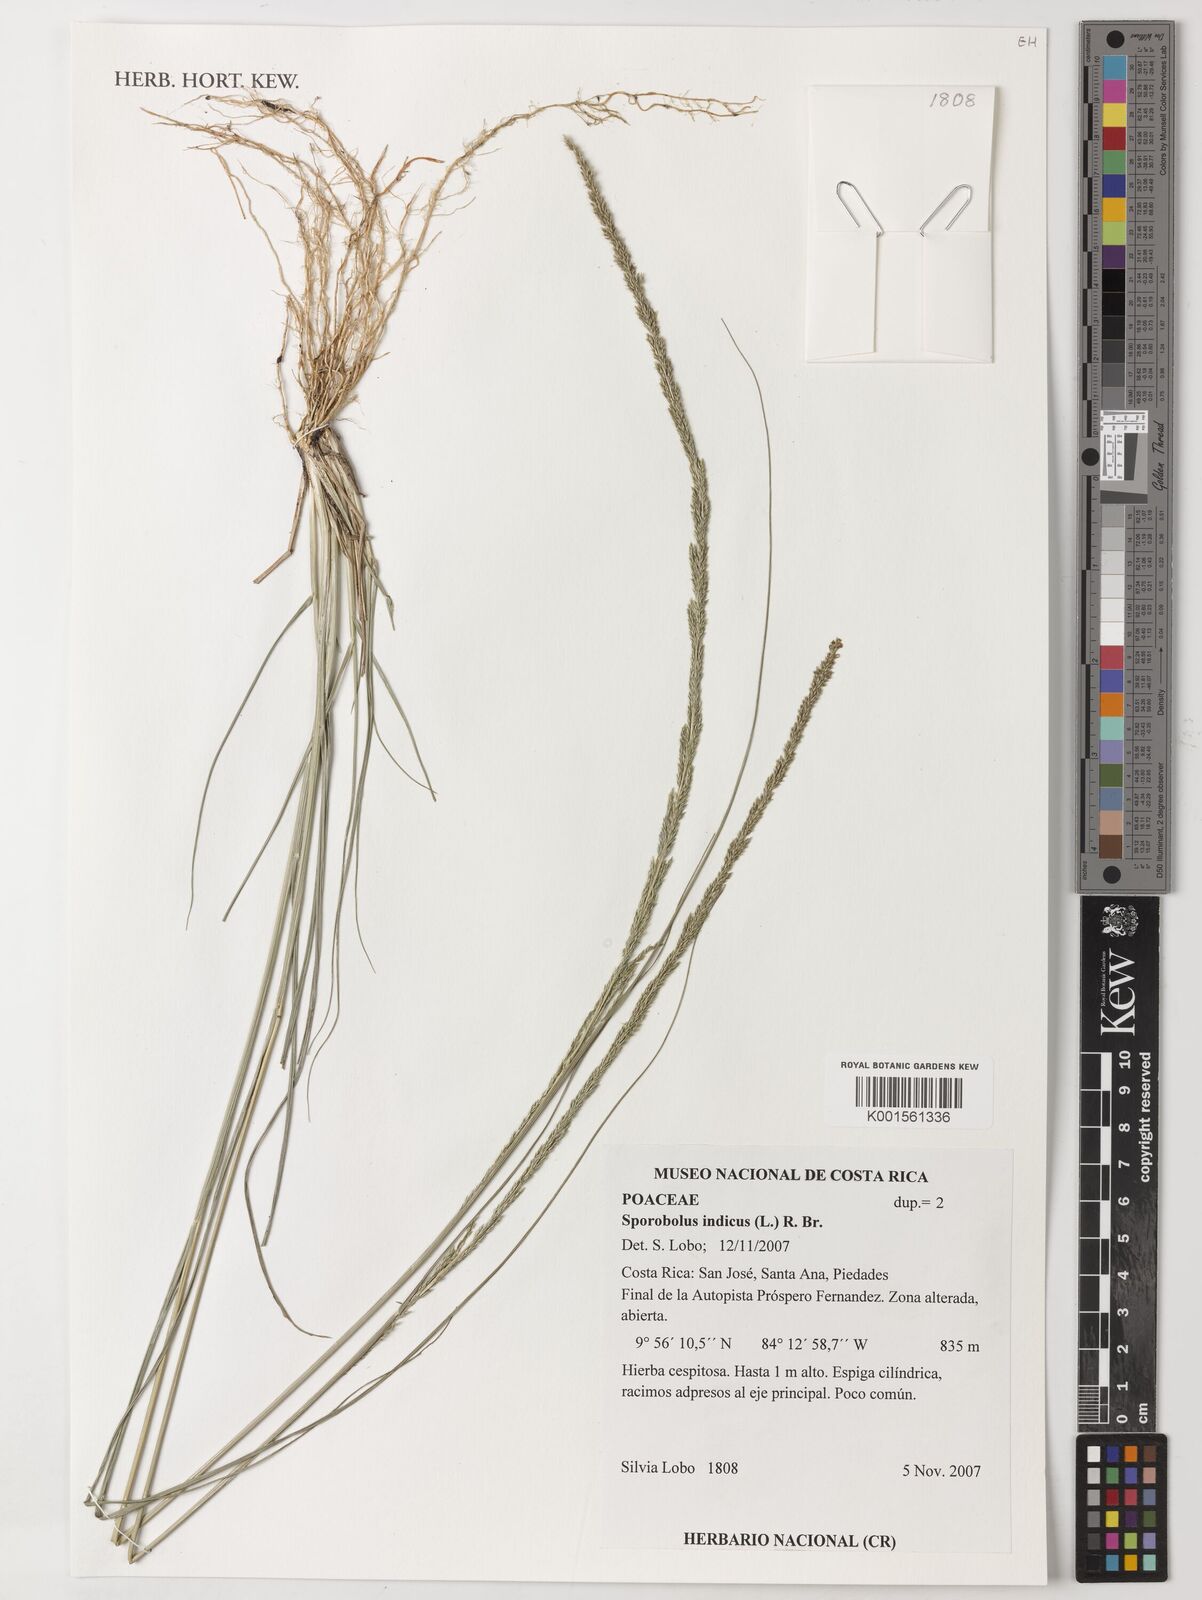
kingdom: Plantae
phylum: Tracheophyta
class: Liliopsida
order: Poales
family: Poaceae
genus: Sporobolus
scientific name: Sporobolus indicus
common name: Smut grass
